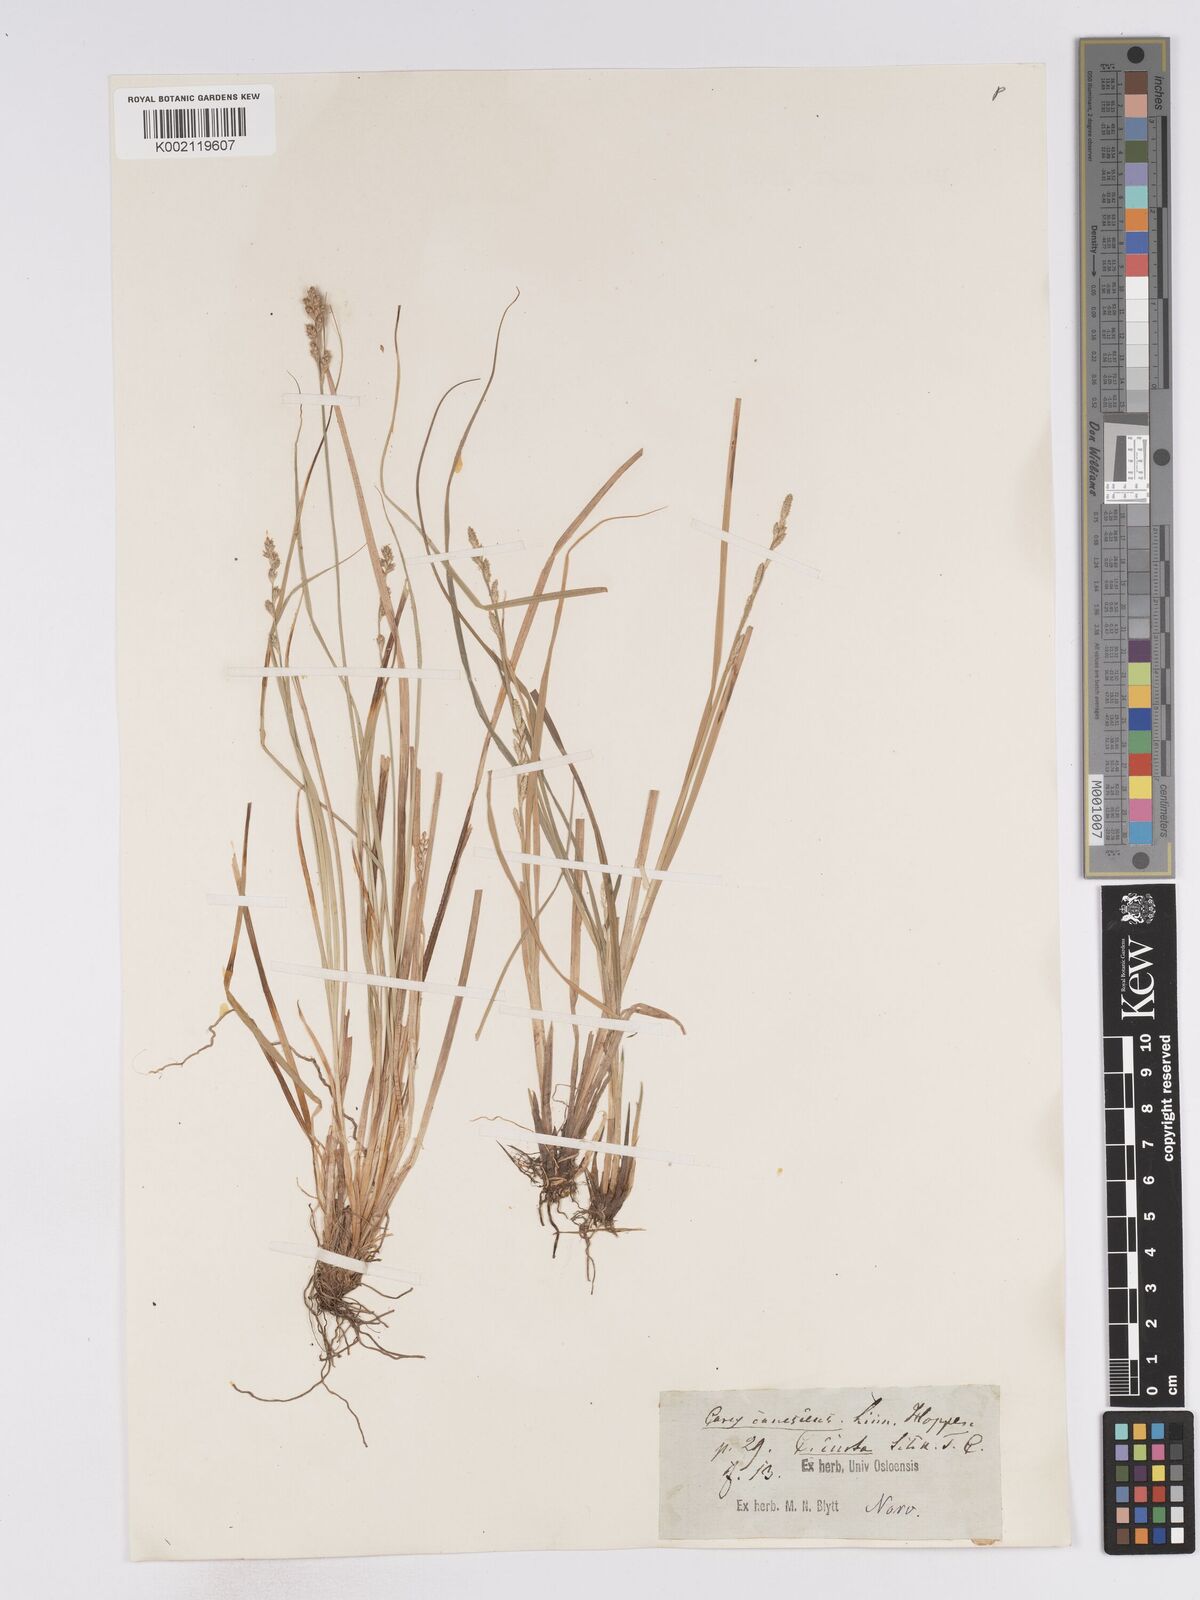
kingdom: Plantae
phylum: Tracheophyta
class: Liliopsida
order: Poales
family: Cyperaceae
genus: Carex
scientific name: Carex curta
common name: White sedge
